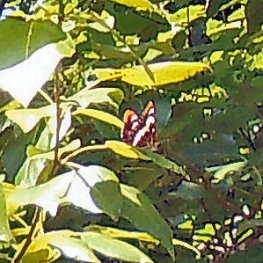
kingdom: Animalia
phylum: Arthropoda
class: Insecta
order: Lepidoptera
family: Nymphalidae
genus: Limenitis
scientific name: Limenitis lorquini
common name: Lorquin's Admiral
